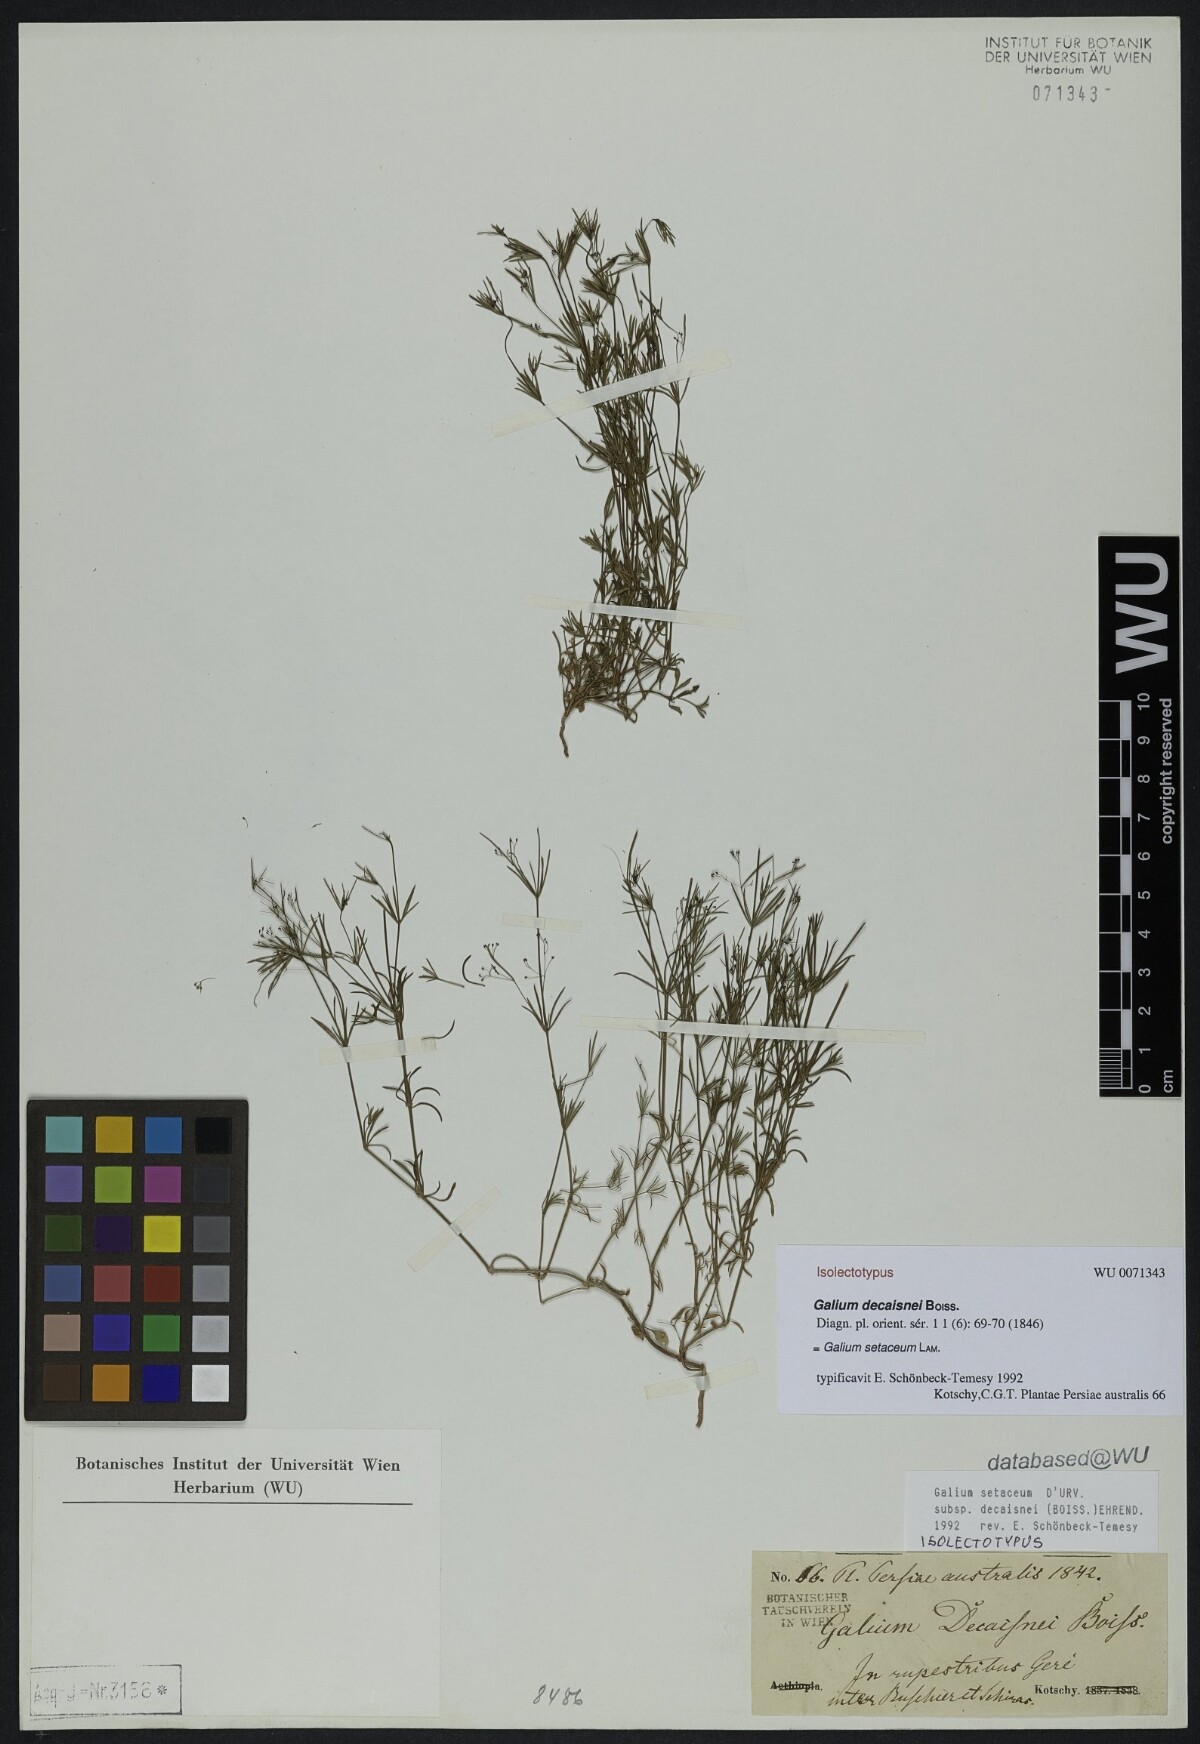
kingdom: Plantae
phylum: Tracheophyta
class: Magnoliopsida
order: Gentianales
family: Rubiaceae
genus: Galium
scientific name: Galium setaceum
